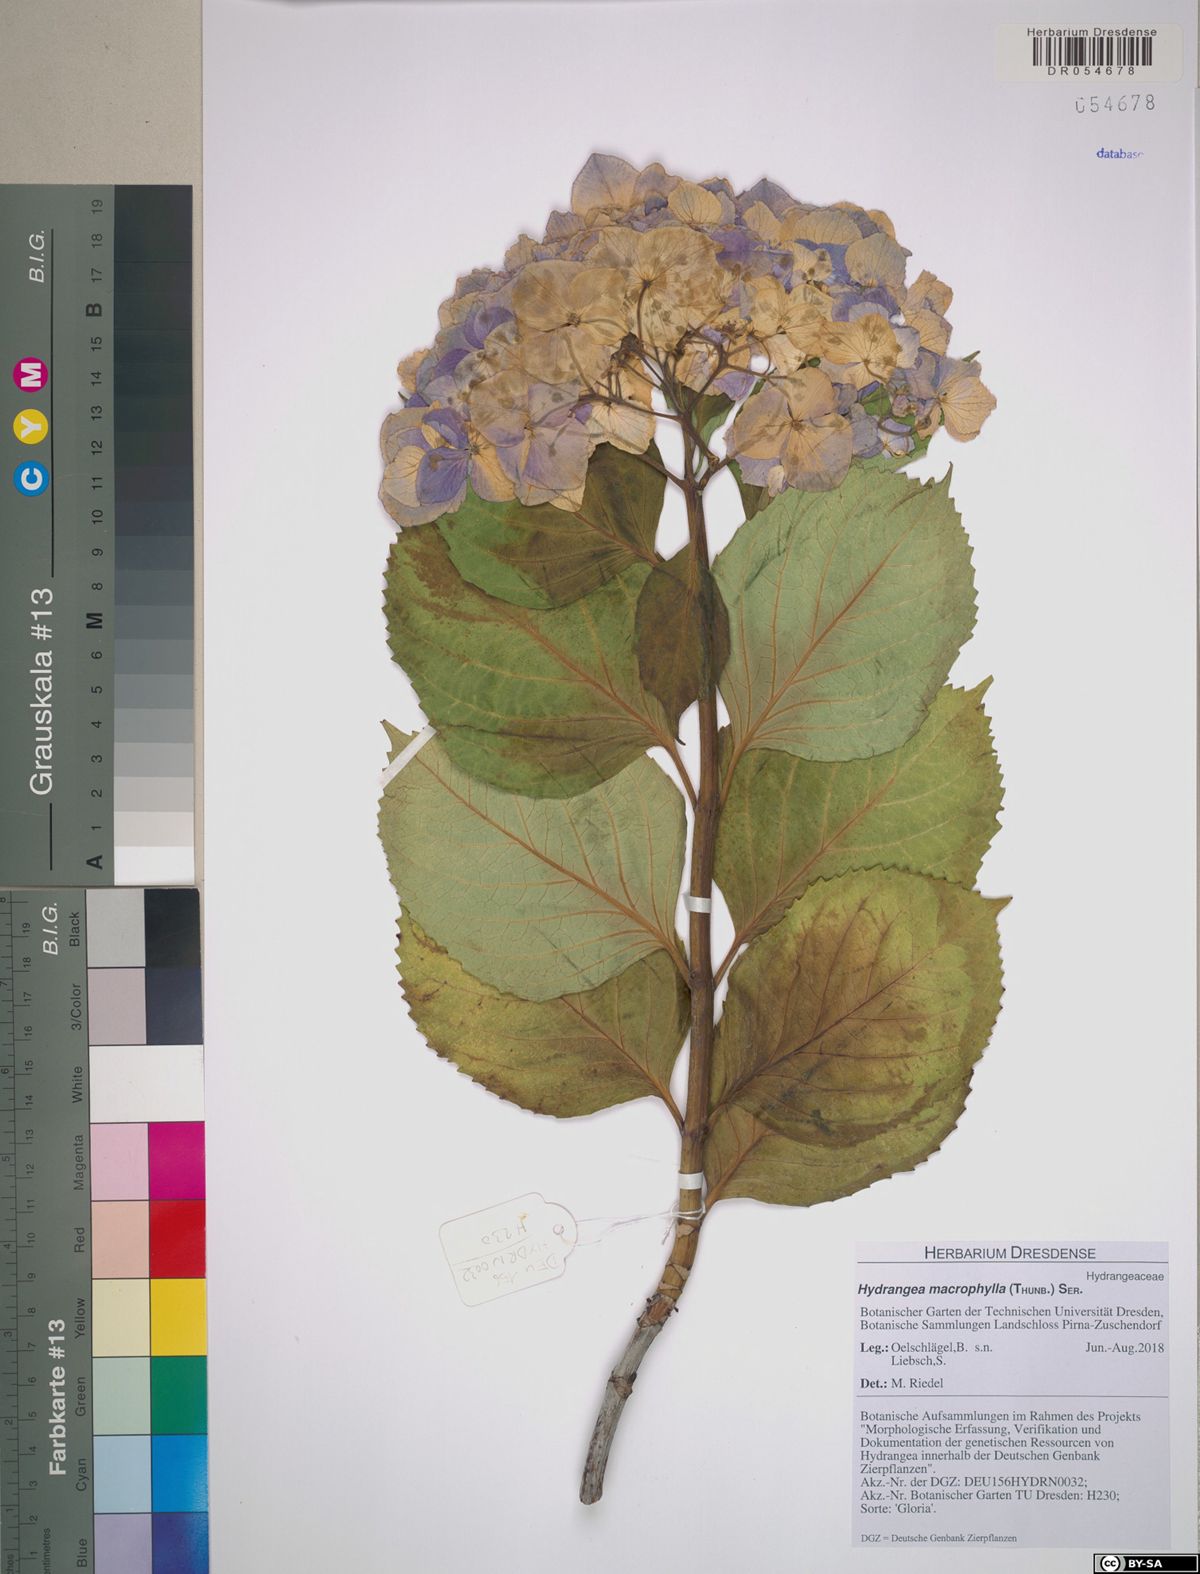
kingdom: Plantae
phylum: Tracheophyta
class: Magnoliopsida
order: Cornales
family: Hydrangeaceae
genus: Hydrangea
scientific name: Hydrangea macrophylla
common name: Hydrangea
